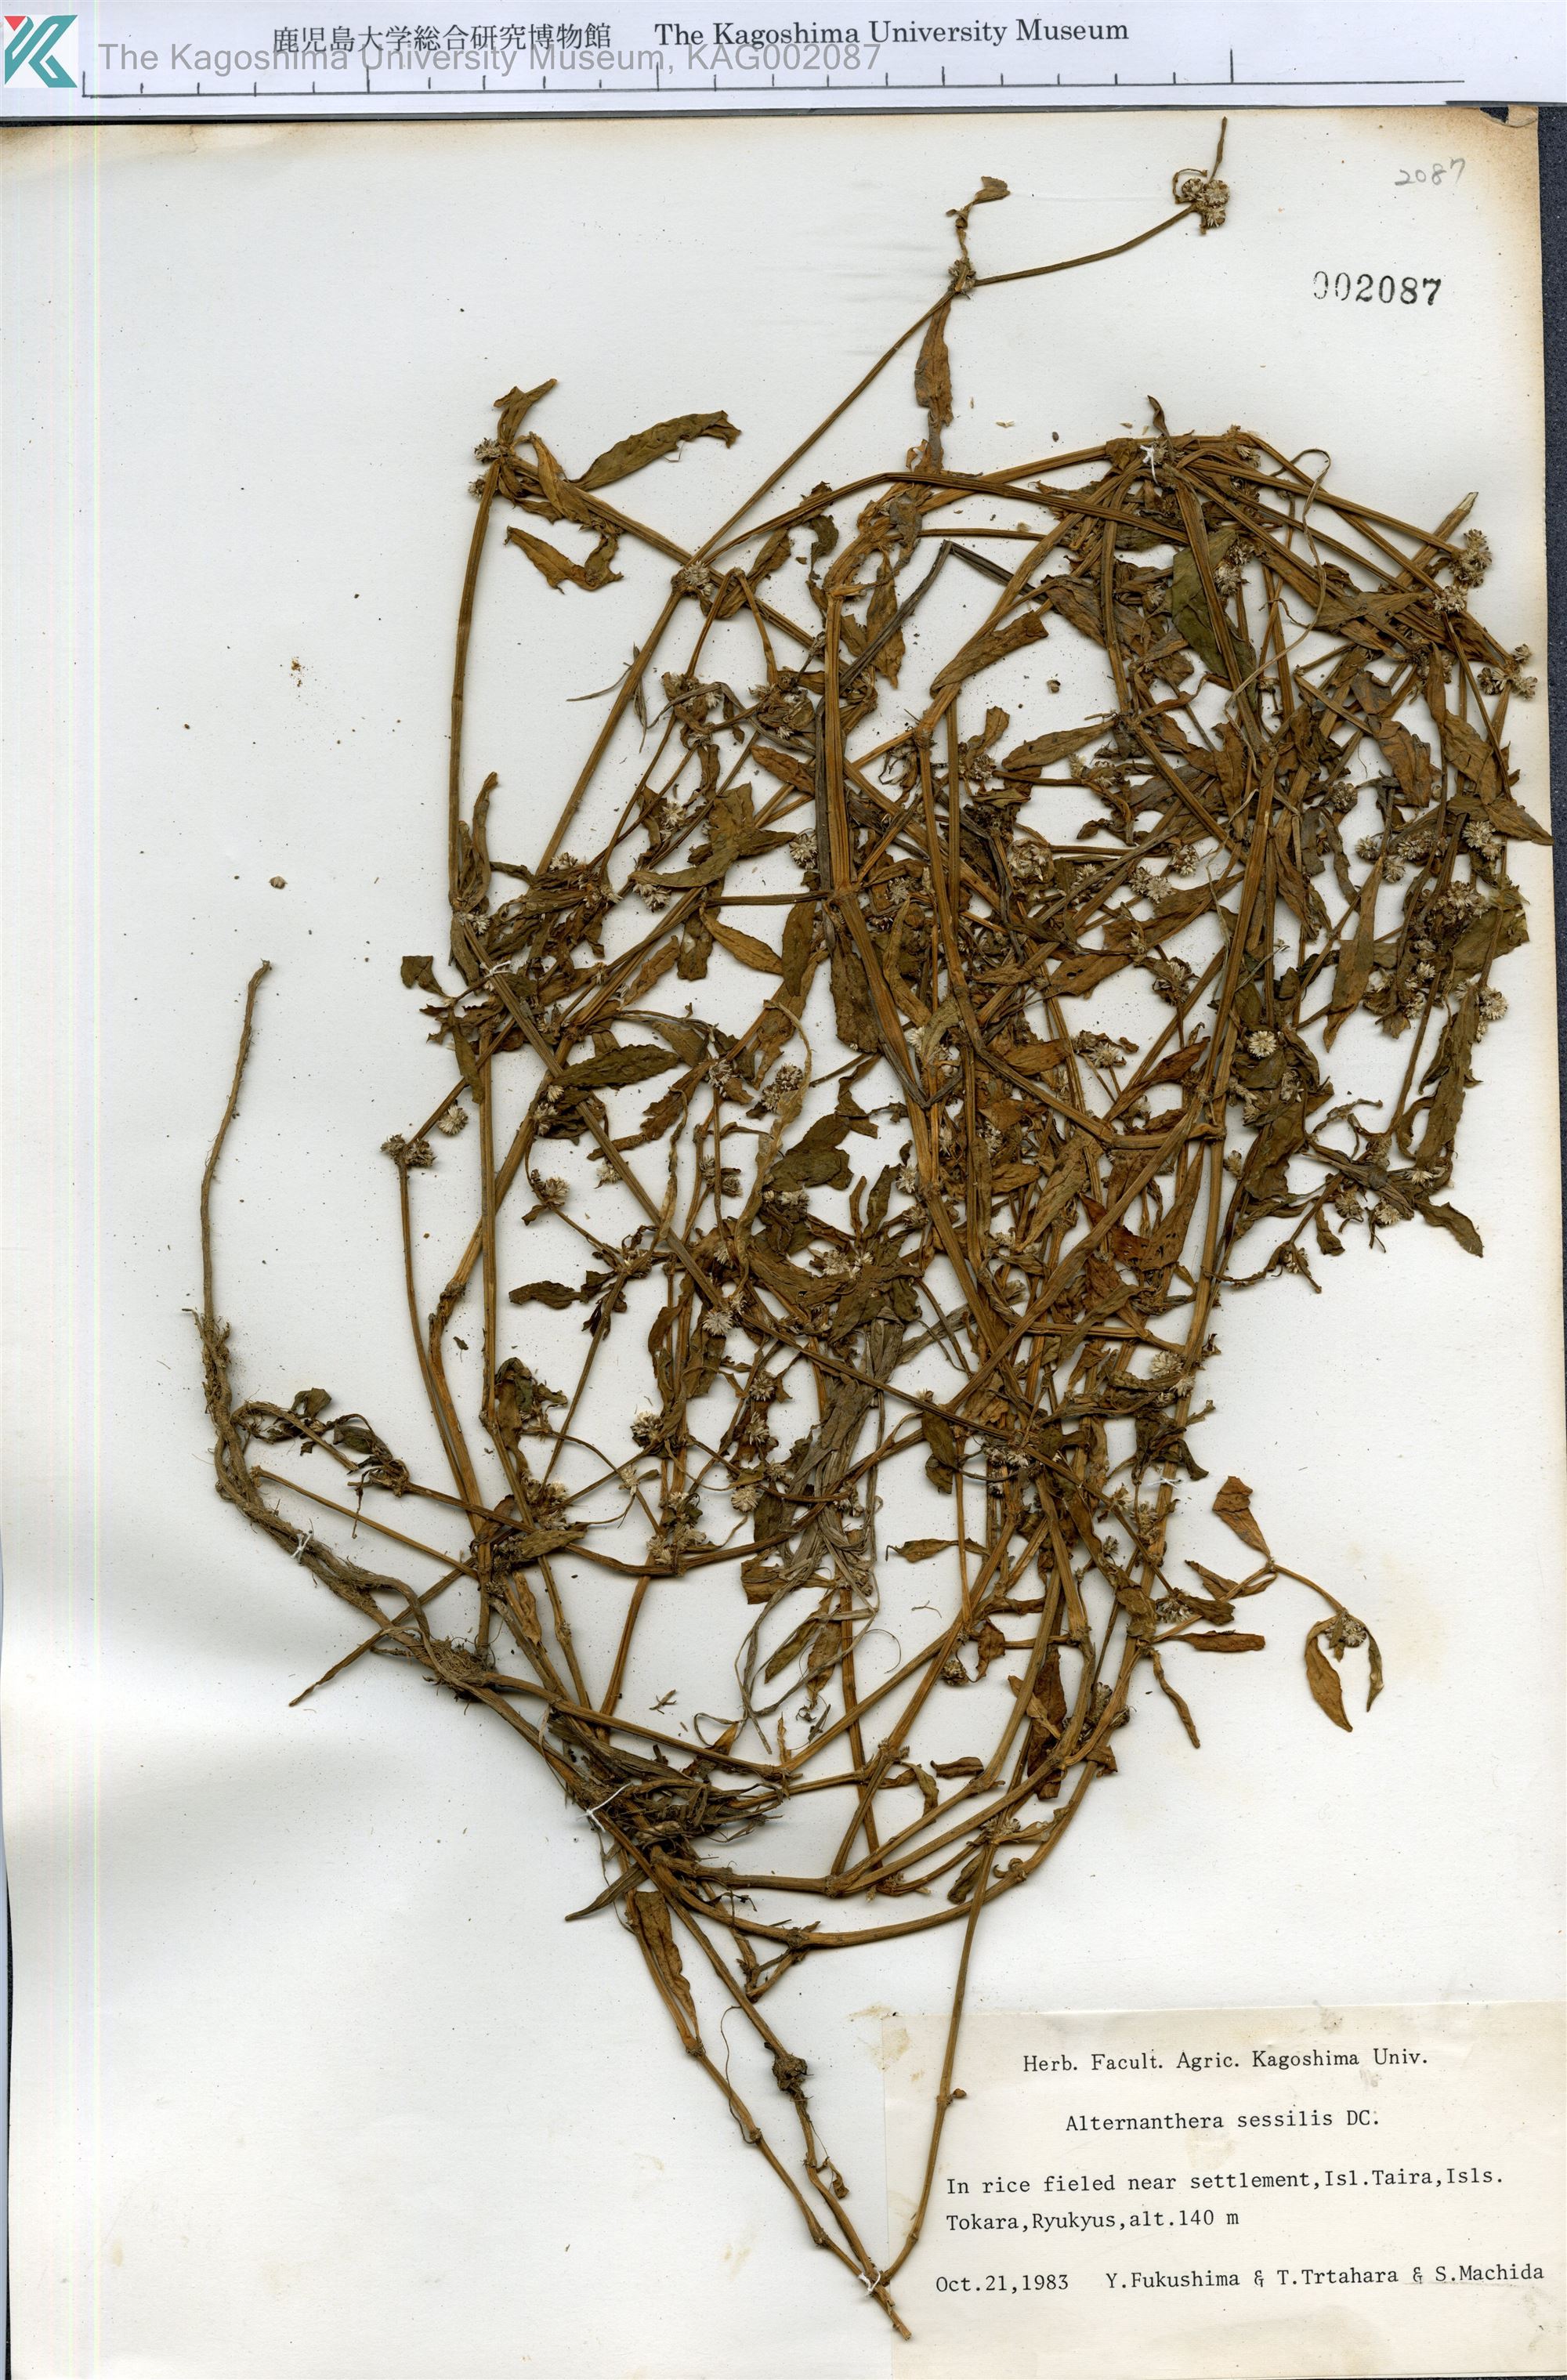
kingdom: Plantae
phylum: Tracheophyta
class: Magnoliopsida
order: Caryophyllales
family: Amaranthaceae
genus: Alternanthera
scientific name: Alternanthera sessilis
